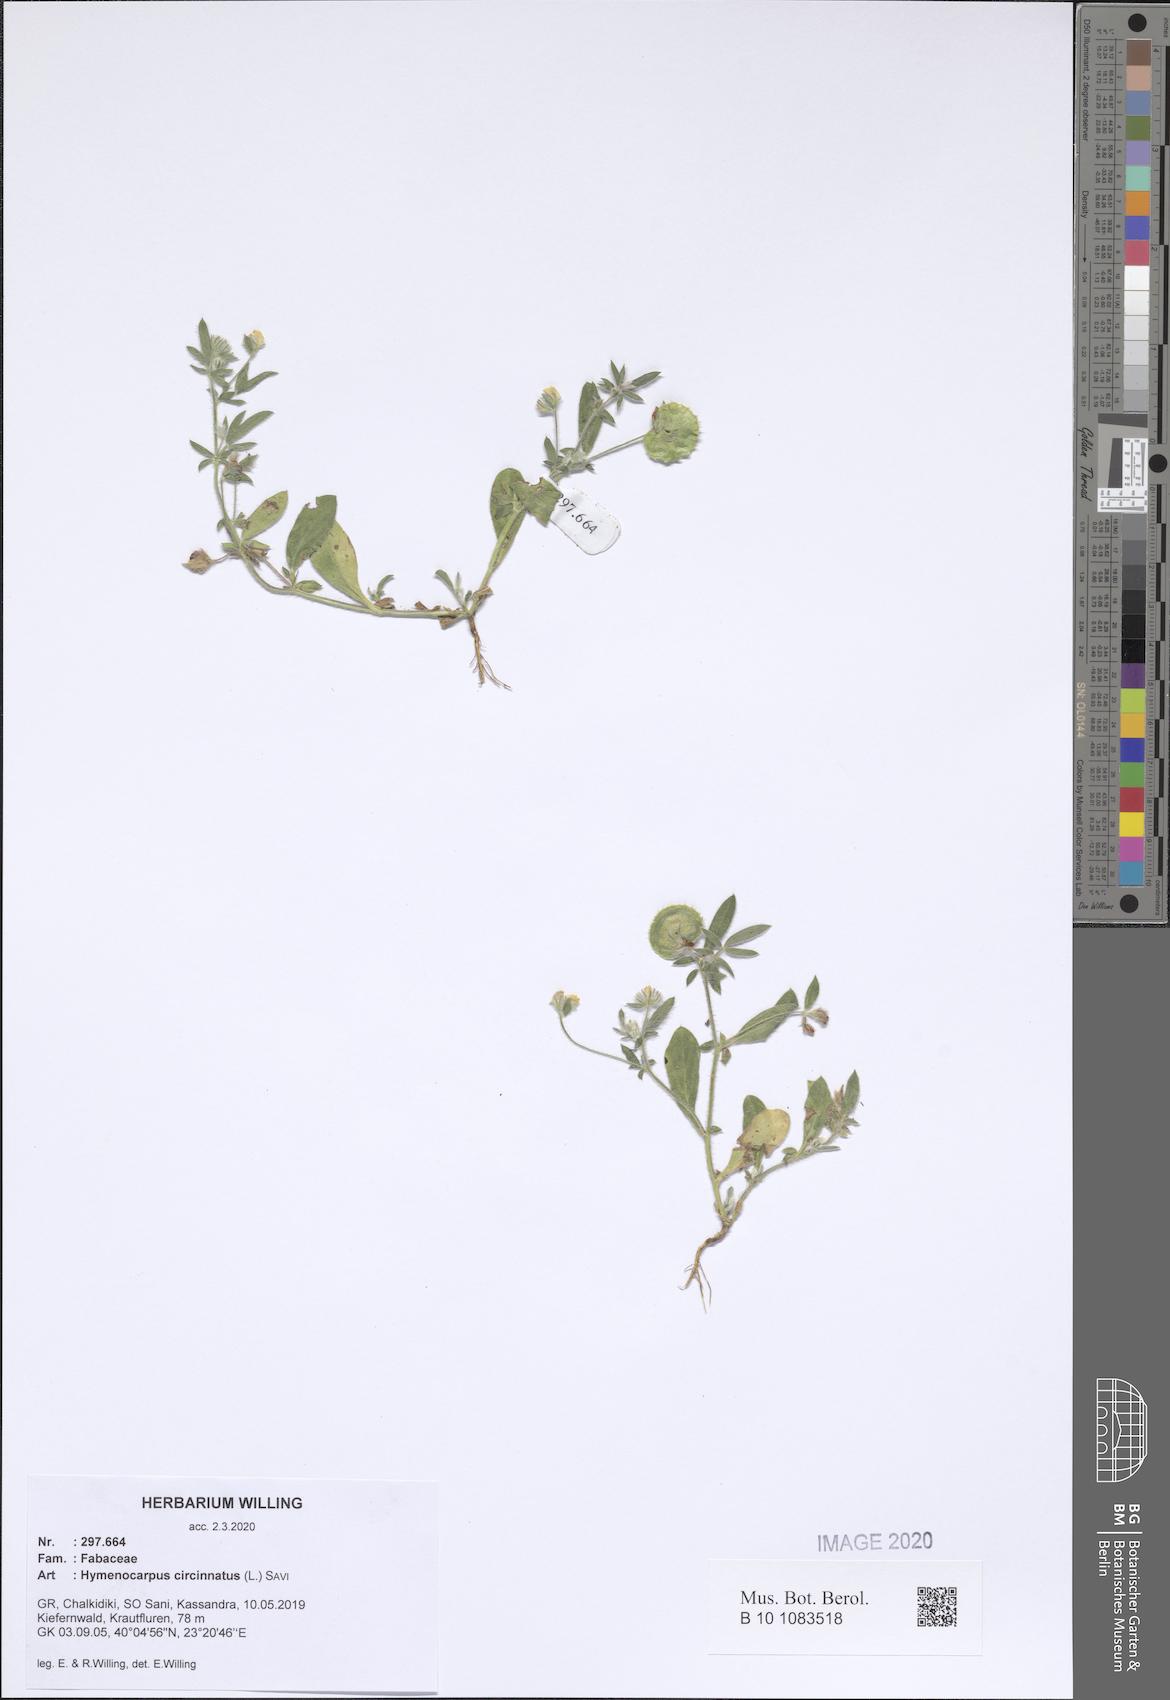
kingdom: Plantae
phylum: Tracheophyta
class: Magnoliopsida
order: Fabales
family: Fabaceae
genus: Anthyllis
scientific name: Anthyllis circinnata
